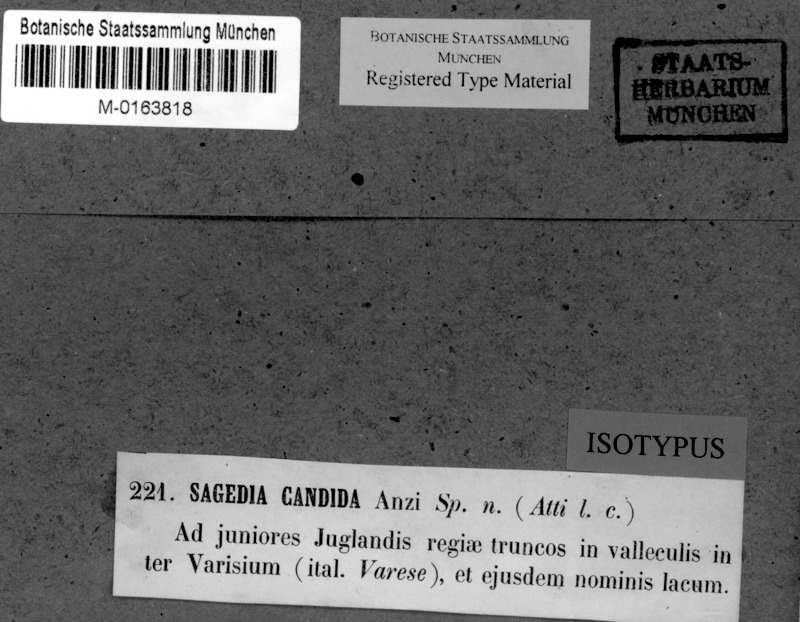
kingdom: Fungi
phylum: Ascomycota
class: Dothideomycetes
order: Strigulales
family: Strigulaceae
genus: Swinscowia
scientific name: Swinscowia glabra
